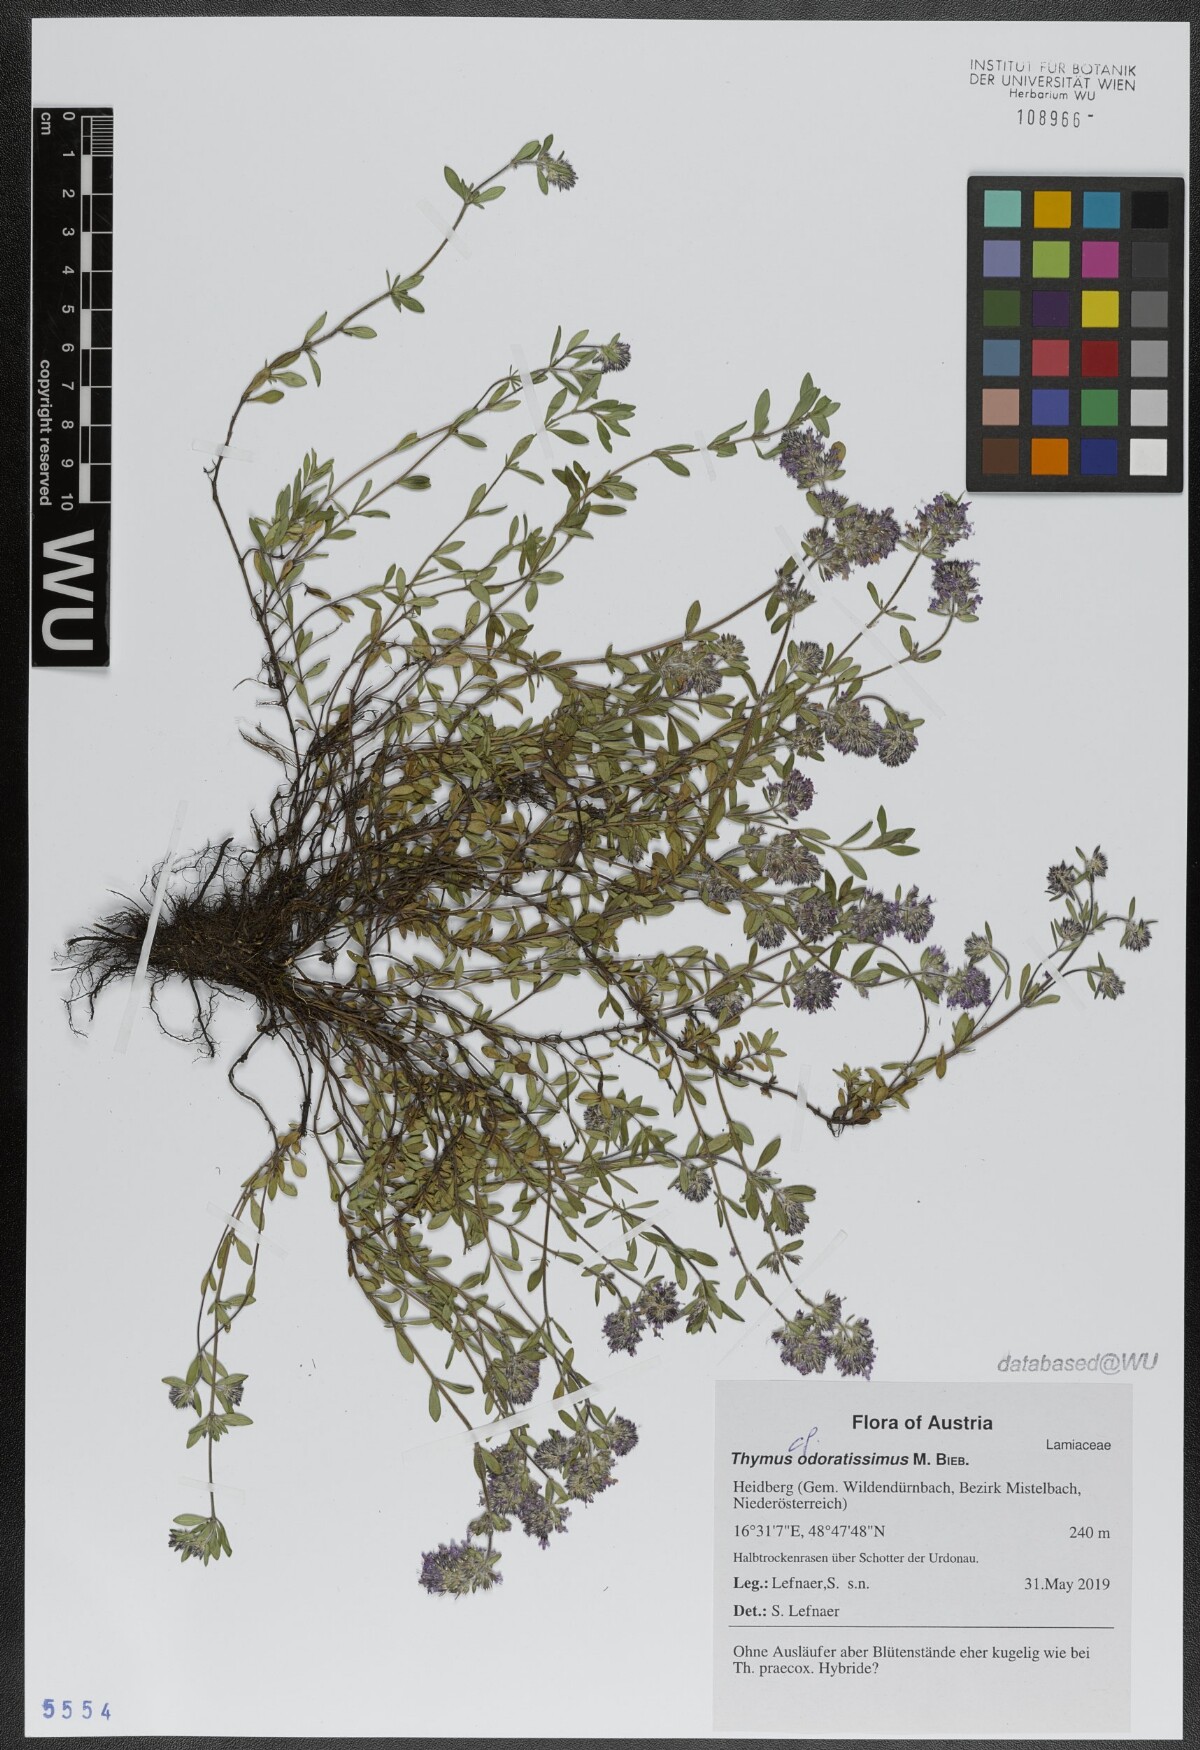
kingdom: Plantae
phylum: Tracheophyta
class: Magnoliopsida
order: Lamiales
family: Lamiaceae
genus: Thymus
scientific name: Thymus odoratissimus
